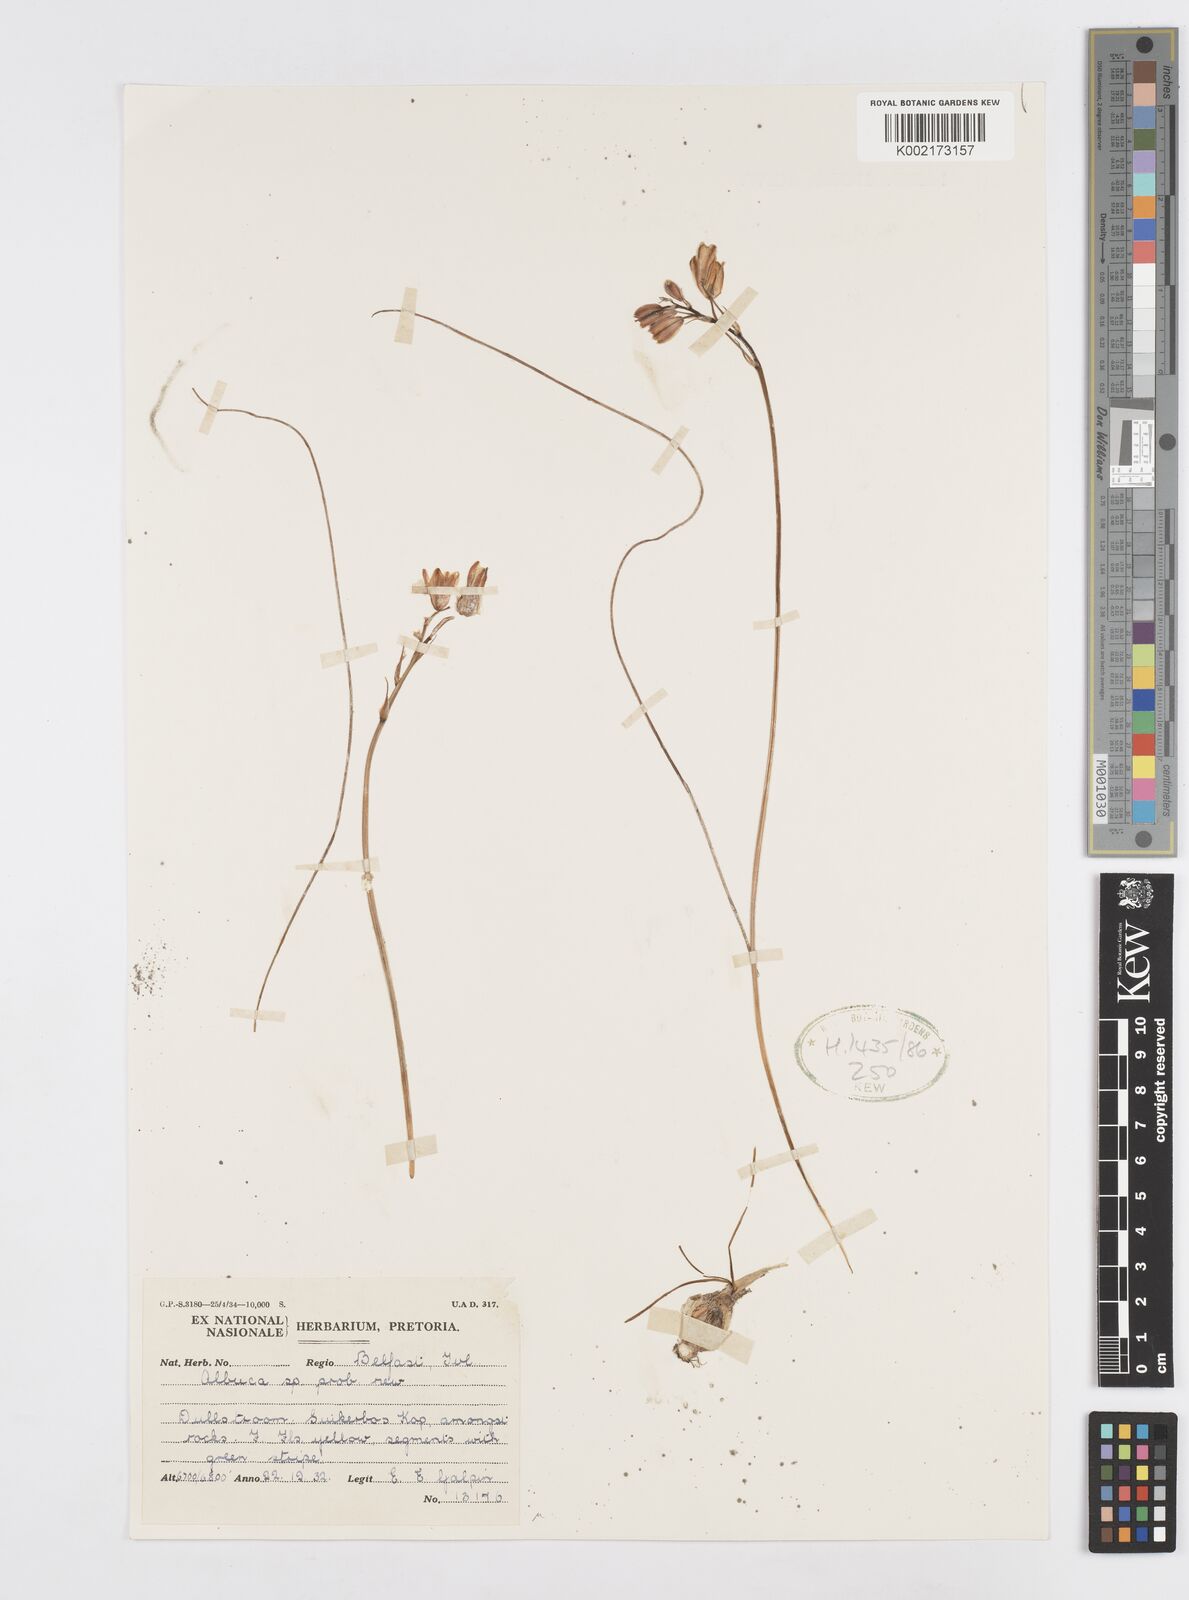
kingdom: Plantae
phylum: Tracheophyta
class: Liliopsida
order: Asparagales
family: Asparagaceae
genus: Albuca
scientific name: Albuca
